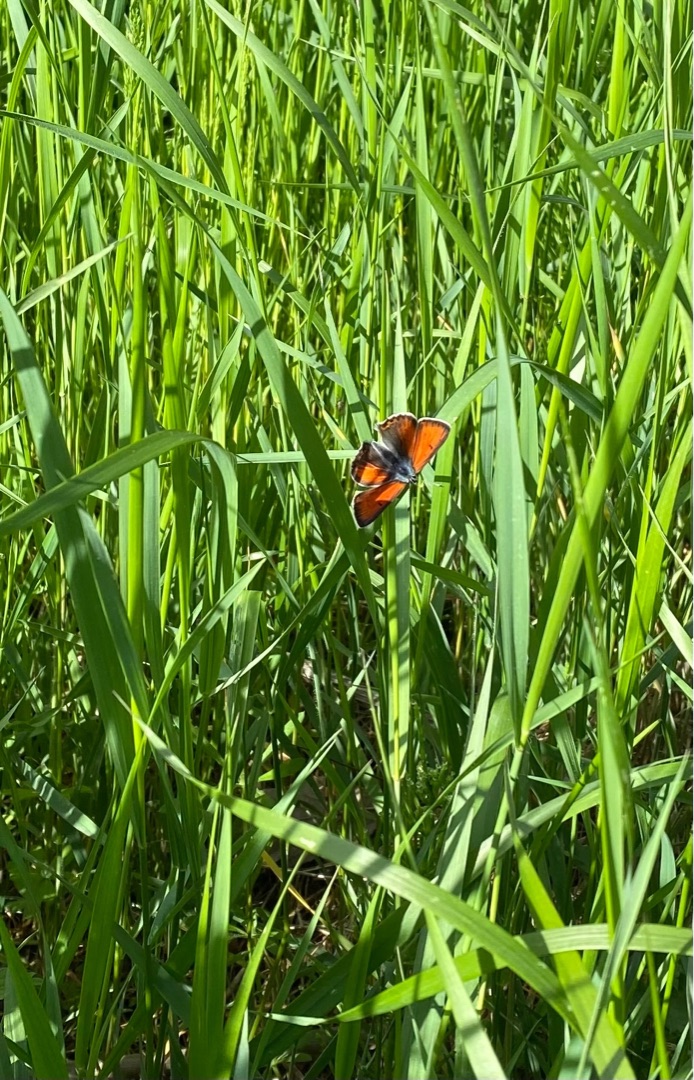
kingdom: Animalia
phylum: Arthropoda
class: Insecta
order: Lepidoptera
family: Lycaenidae
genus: Palaeochrysophanus
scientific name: Palaeochrysophanus hippothoe
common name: Violetrandet ildfugl
